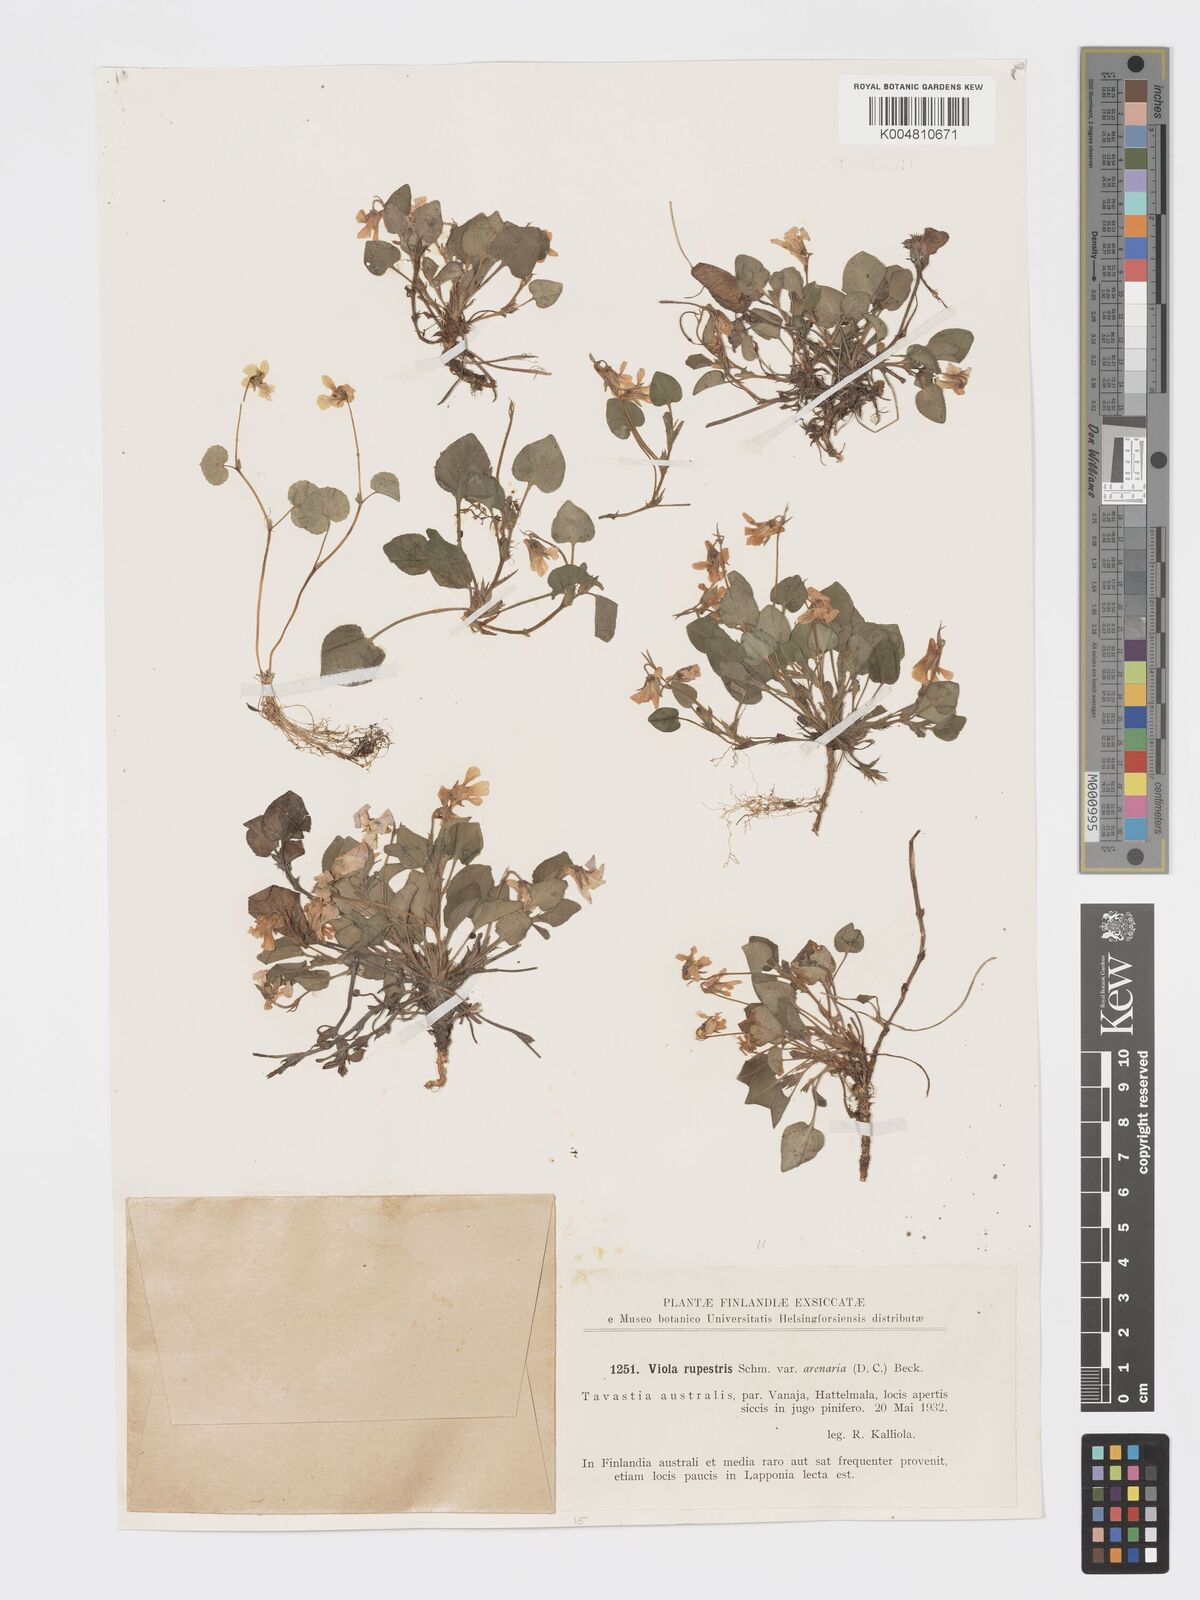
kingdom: Plantae
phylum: Tracheophyta
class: Magnoliopsida
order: Malpighiales
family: Violaceae
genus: Viola
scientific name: Viola rupestris
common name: Teesdale violet
